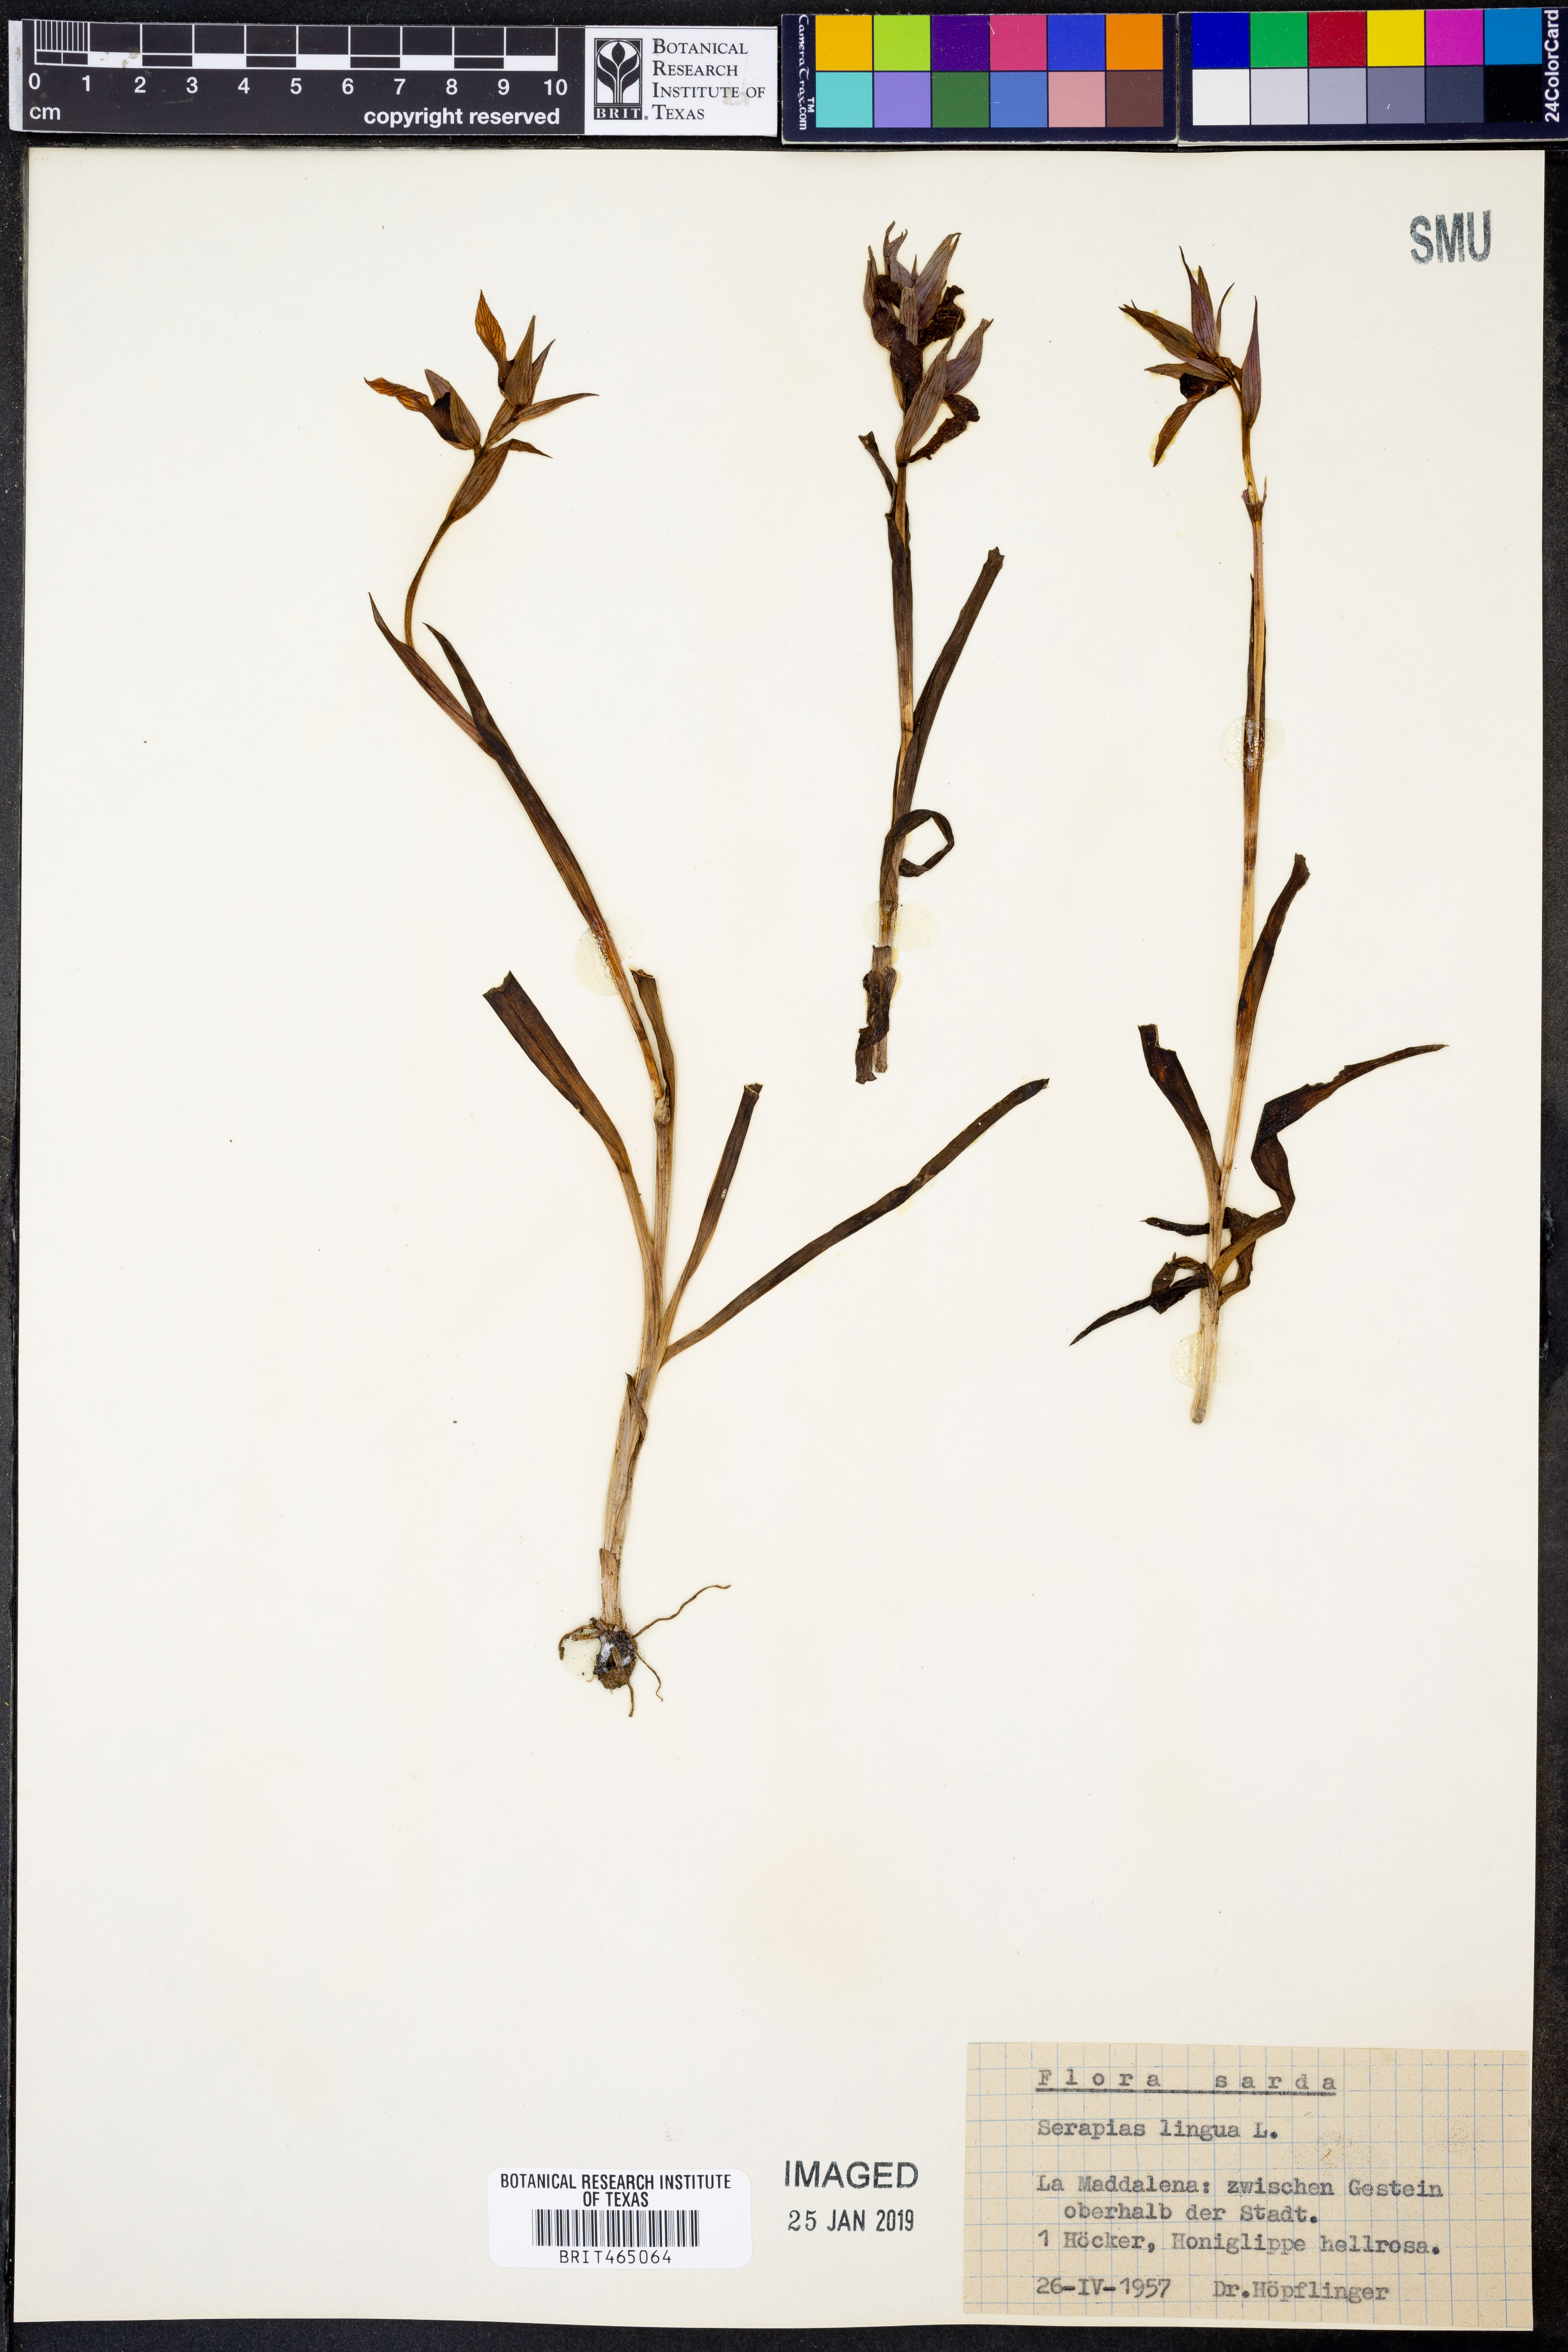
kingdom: Plantae
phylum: Tracheophyta
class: Liliopsida
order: Asparagales
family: Orchidaceae
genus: Serapias
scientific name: Serapias lingua
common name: Tongue-orchid
